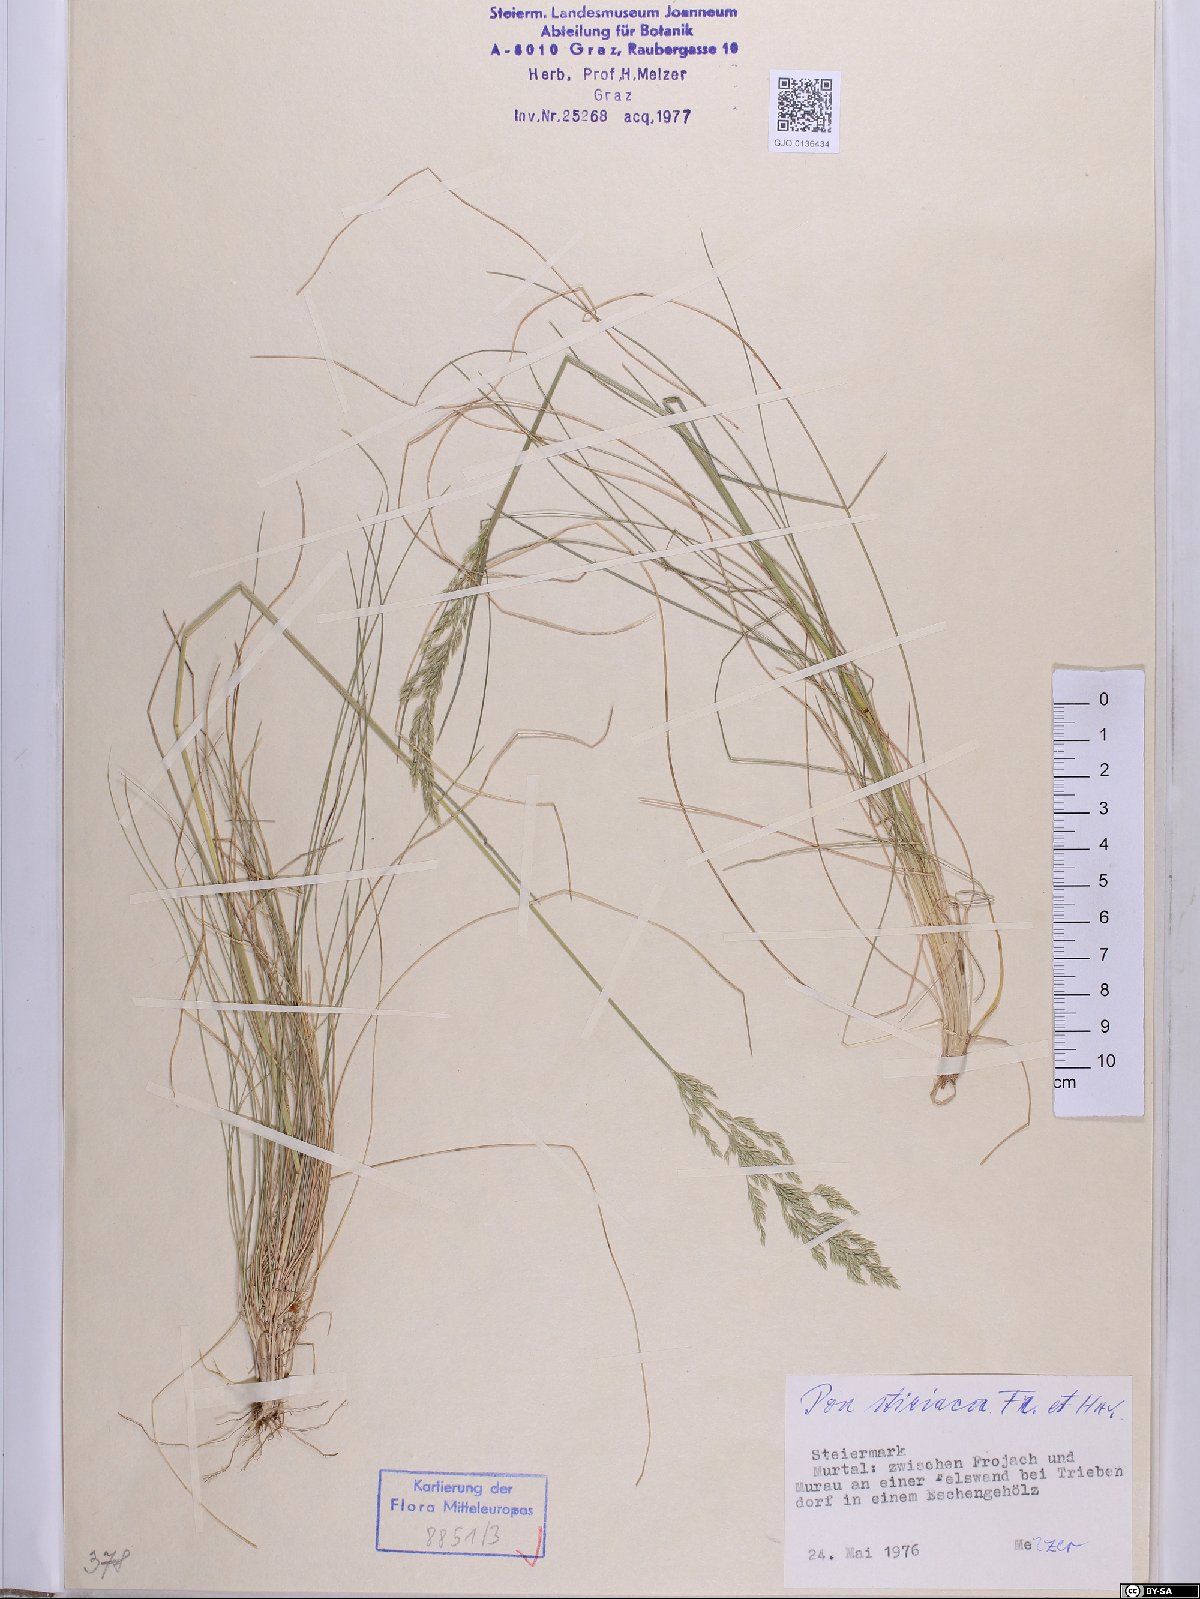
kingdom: Plantae
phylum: Tracheophyta
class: Liliopsida
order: Poales
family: Poaceae
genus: Poa
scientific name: Poa stiriaca
